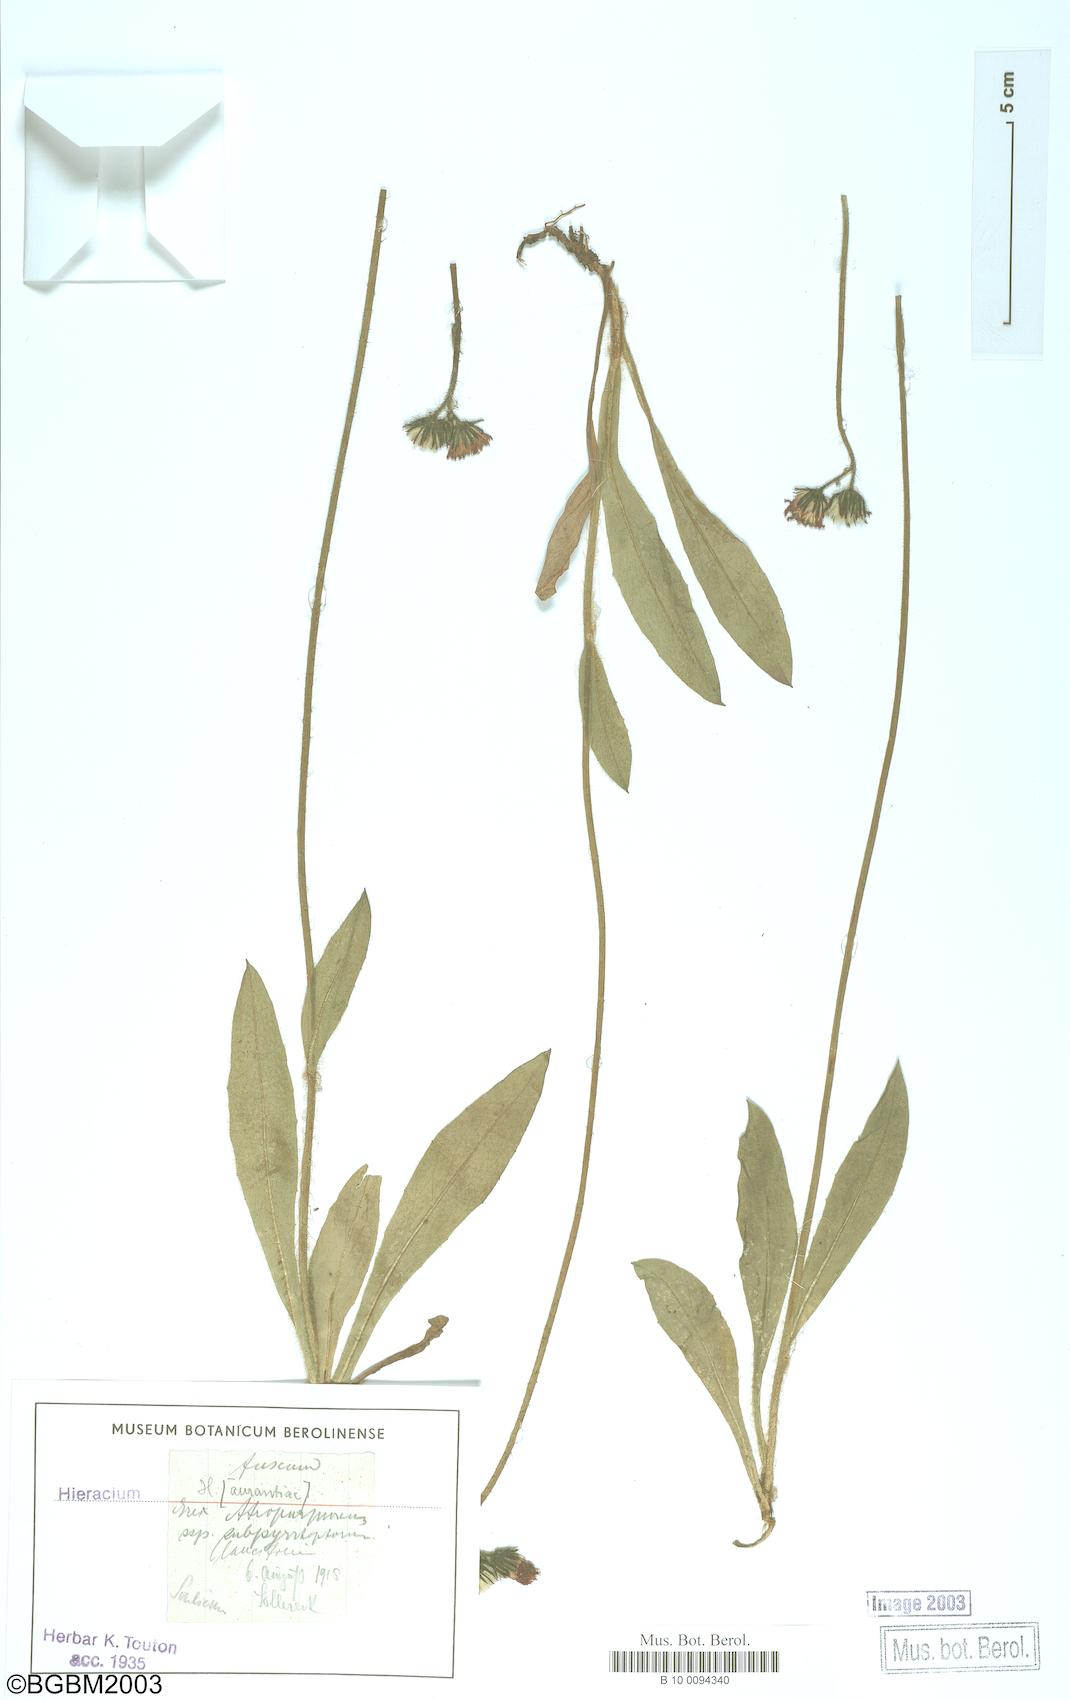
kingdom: Plantae
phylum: Tracheophyta
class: Magnoliopsida
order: Asterales
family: Asteraceae
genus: Hieracium
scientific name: Hieracium fuscum
